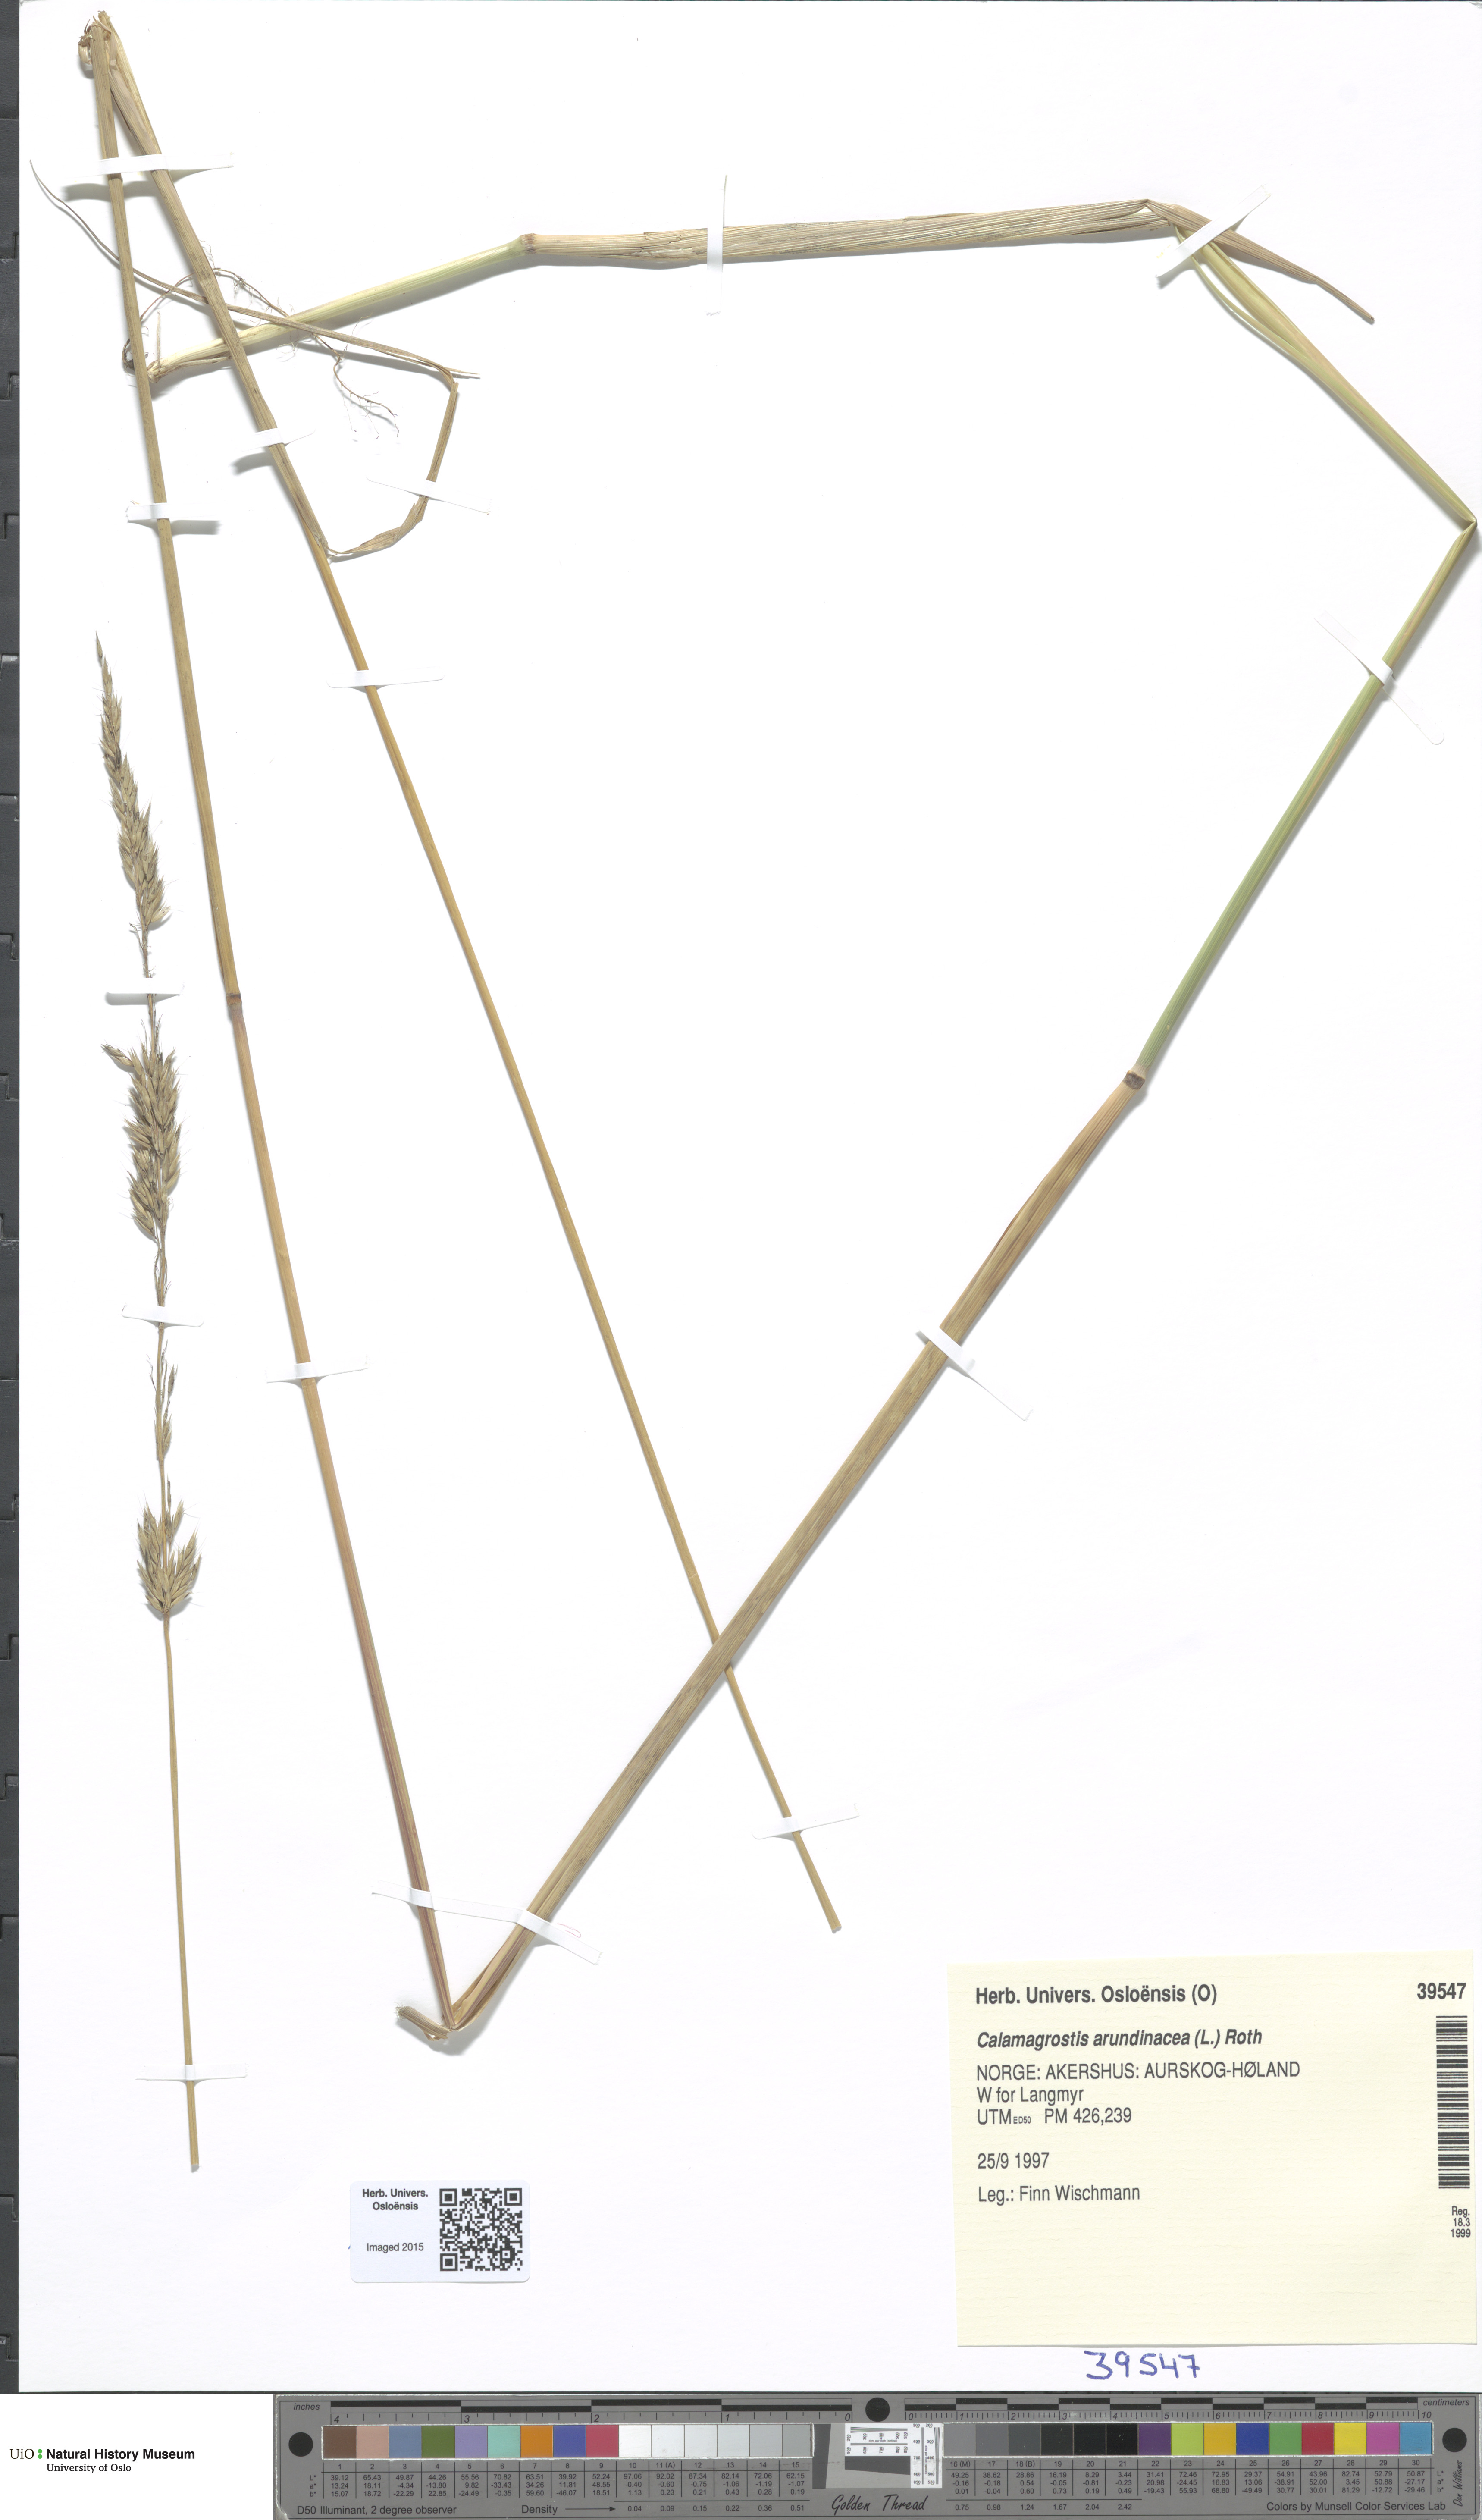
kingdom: Plantae
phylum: Tracheophyta
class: Liliopsida
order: Poales
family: Poaceae
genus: Calamagrostis
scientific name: Calamagrostis arundinacea
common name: Metskastik
